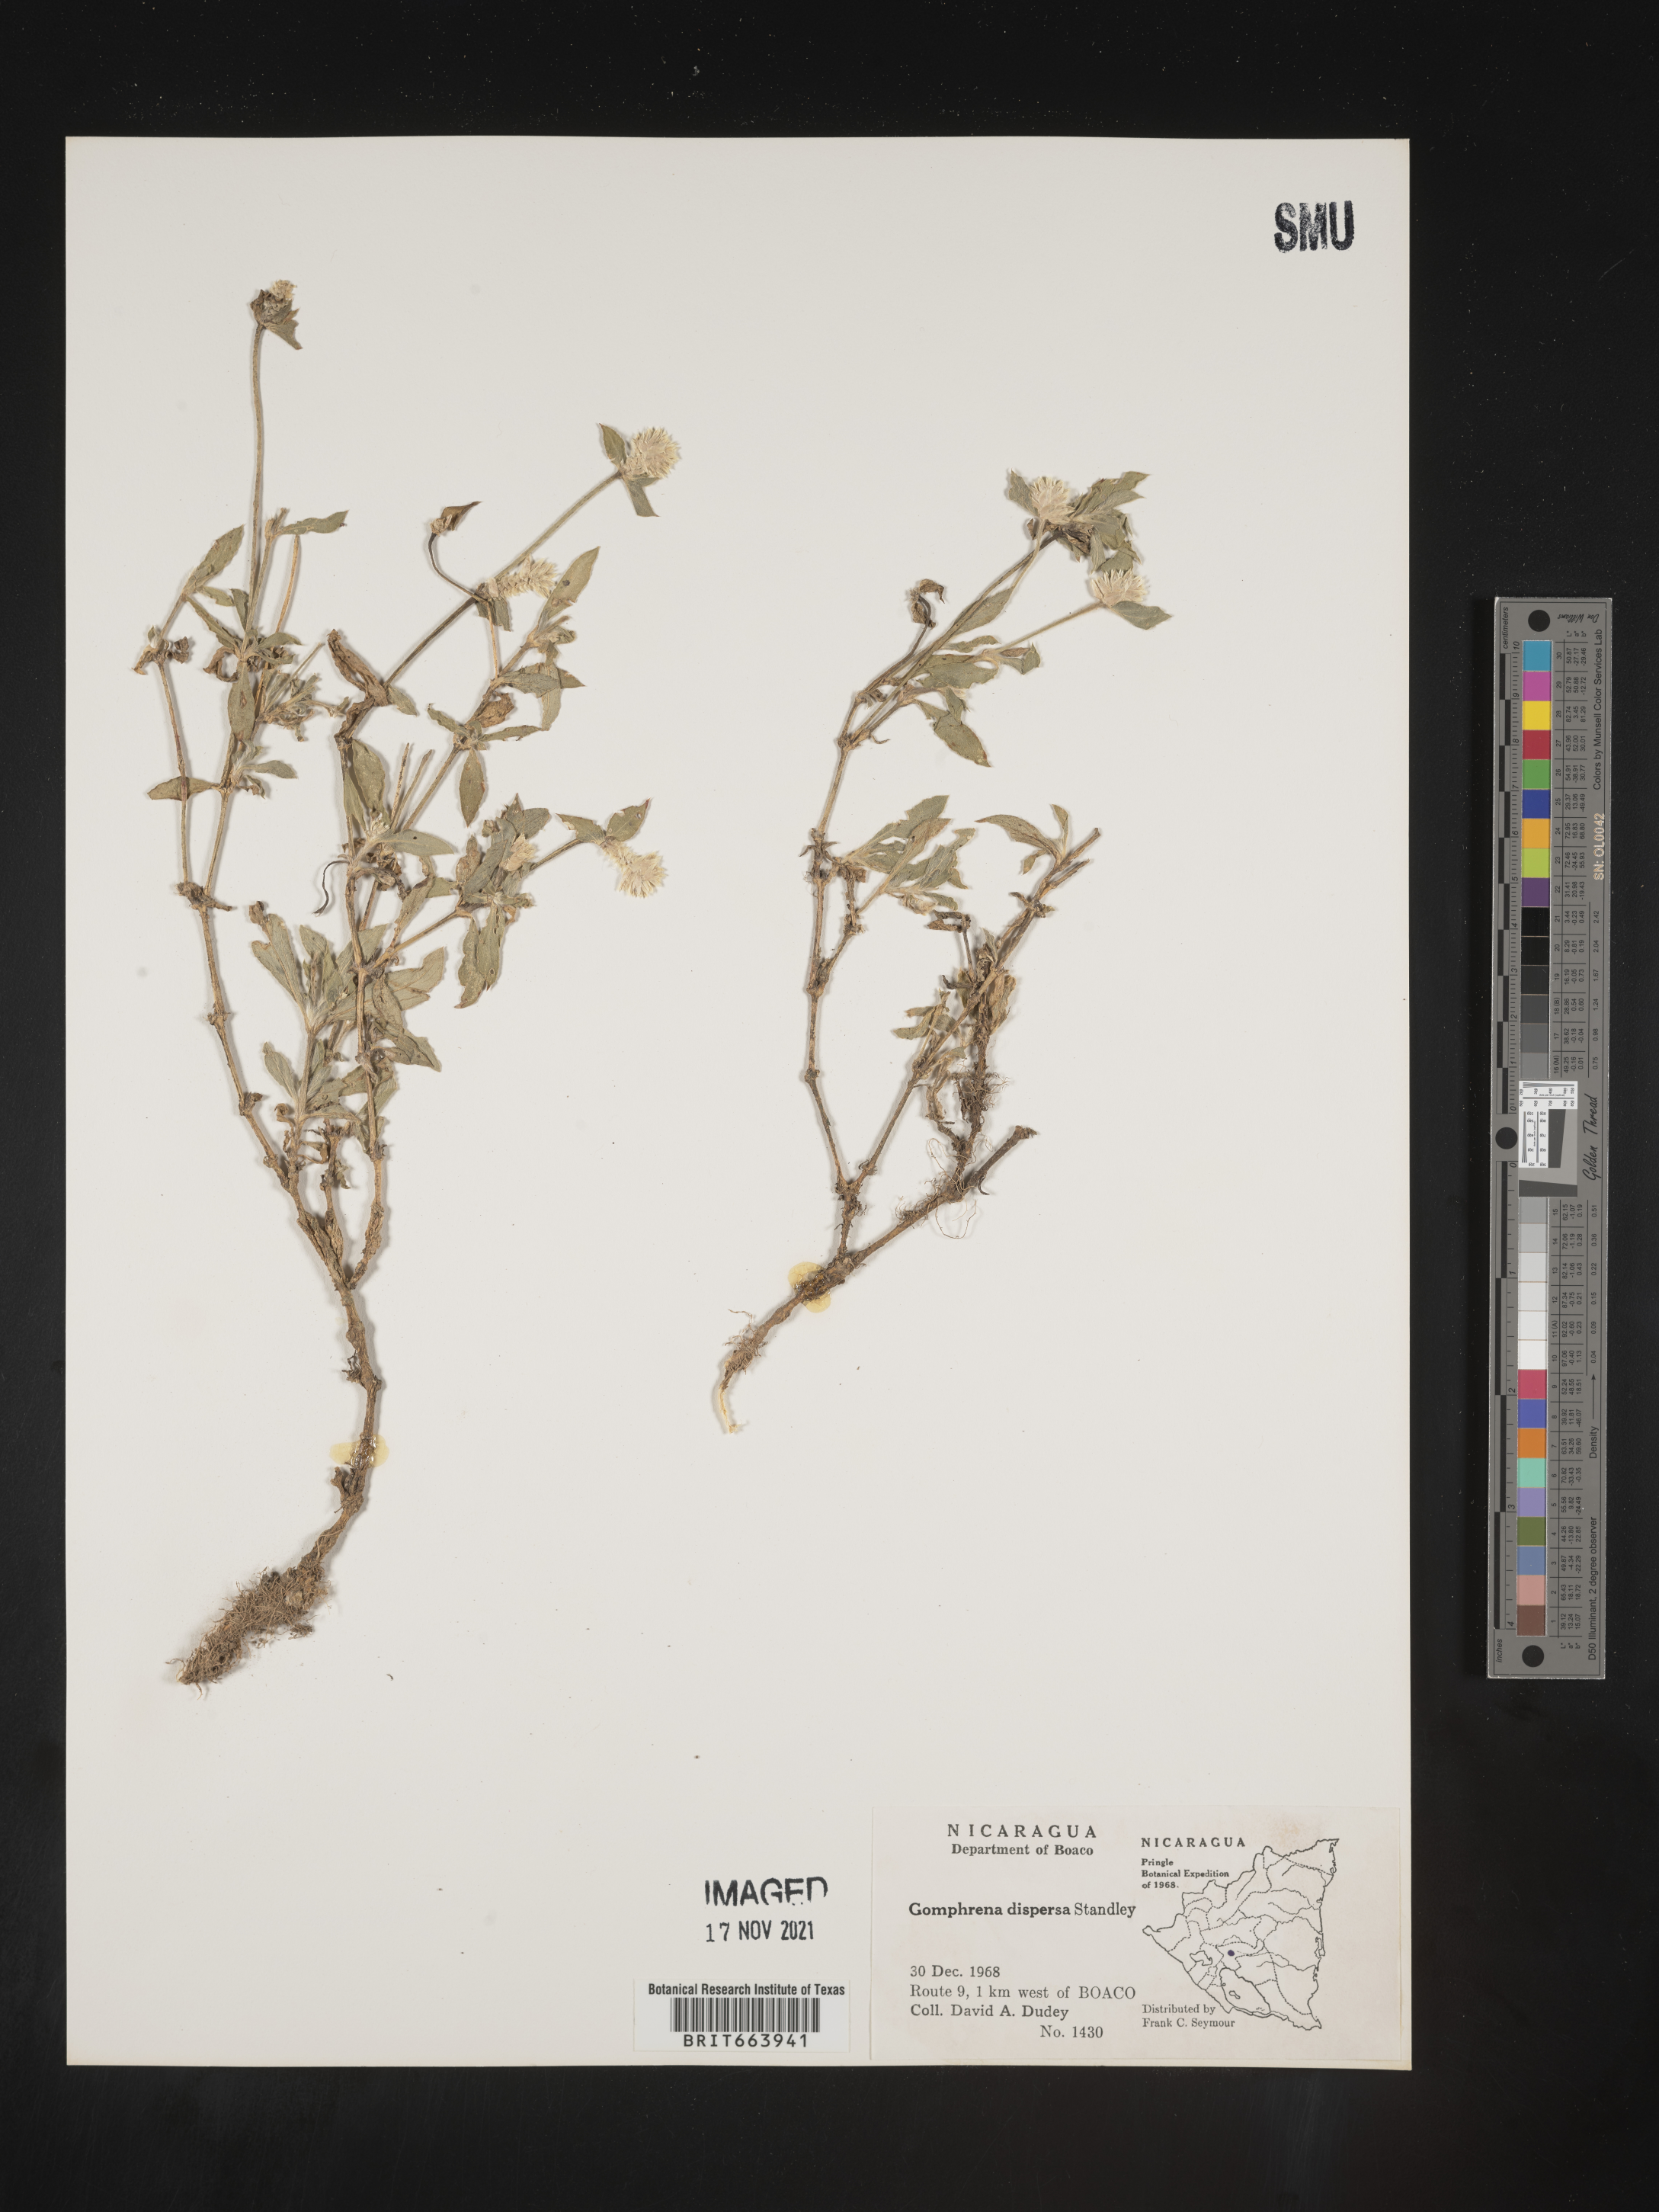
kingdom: Plantae
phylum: Tracheophyta
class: Magnoliopsida
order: Caryophyllales
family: Amaranthaceae
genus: Gomphrena
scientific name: Gomphrena
